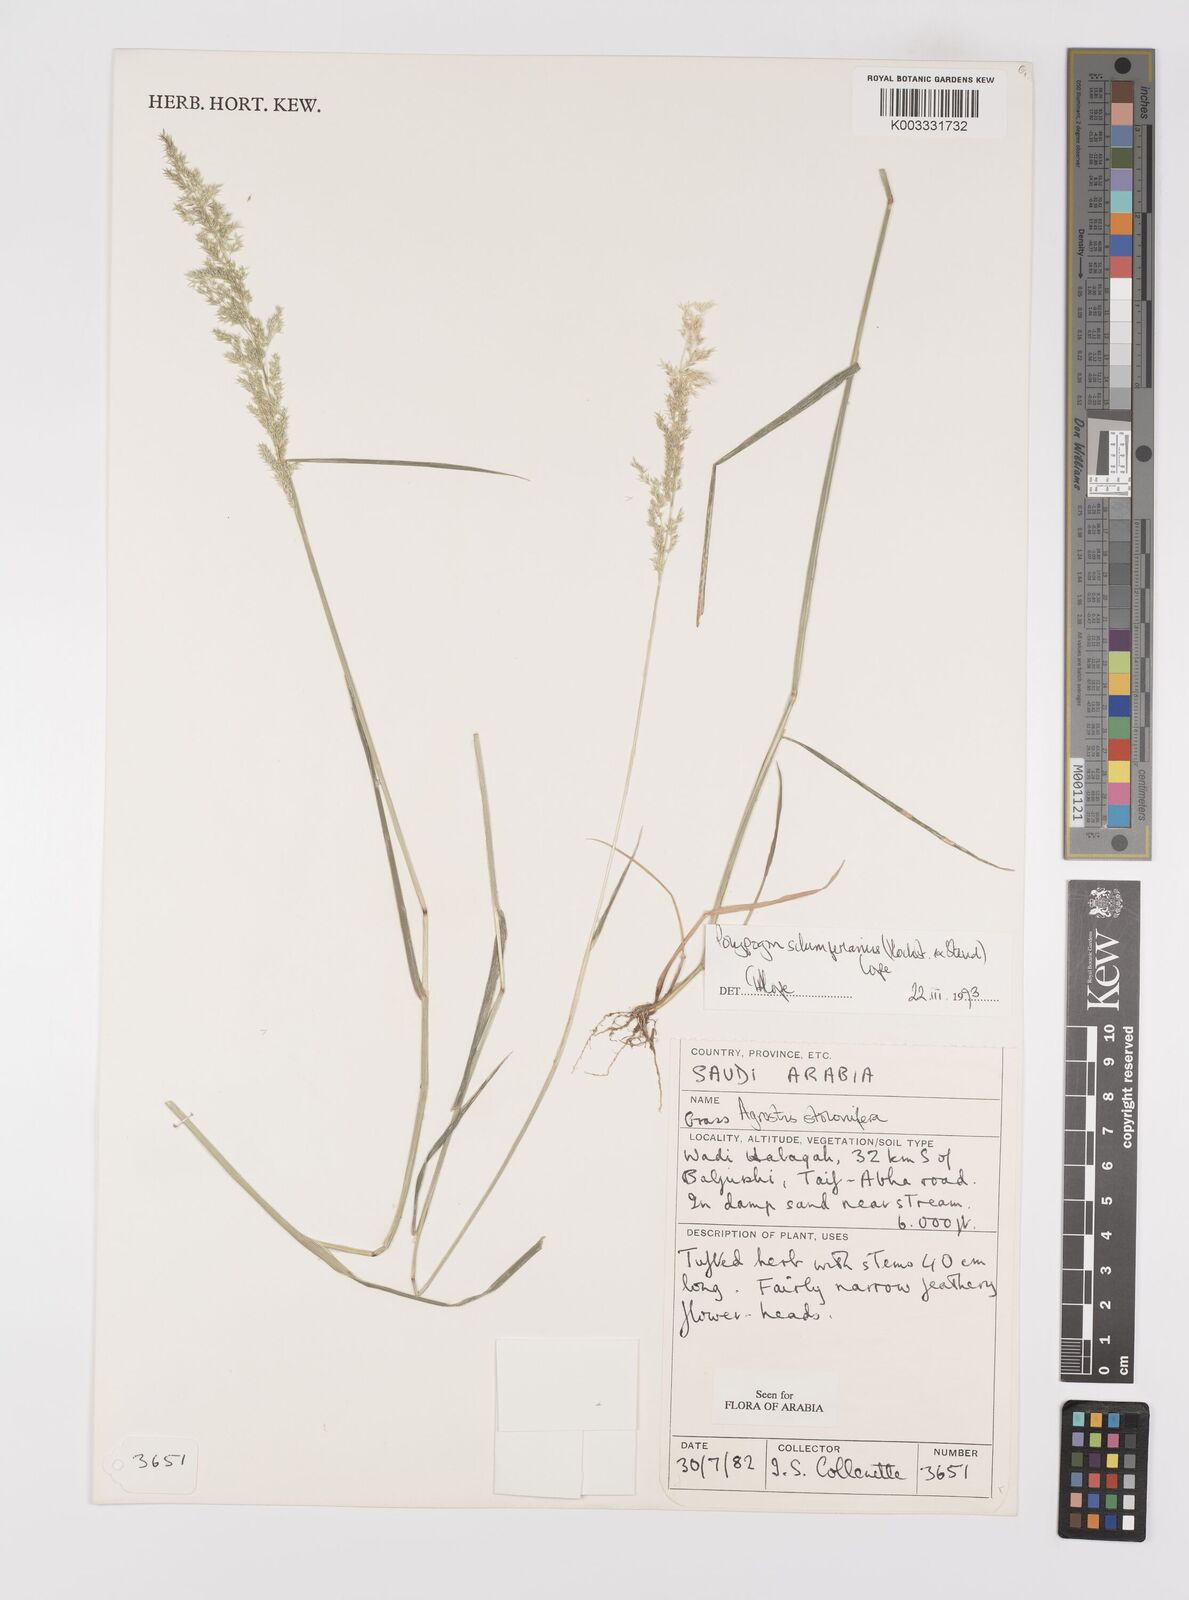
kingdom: Plantae
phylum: Tracheophyta
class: Liliopsida
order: Poales
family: Poaceae
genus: Polypogon
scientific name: Polypogon schimperianus
